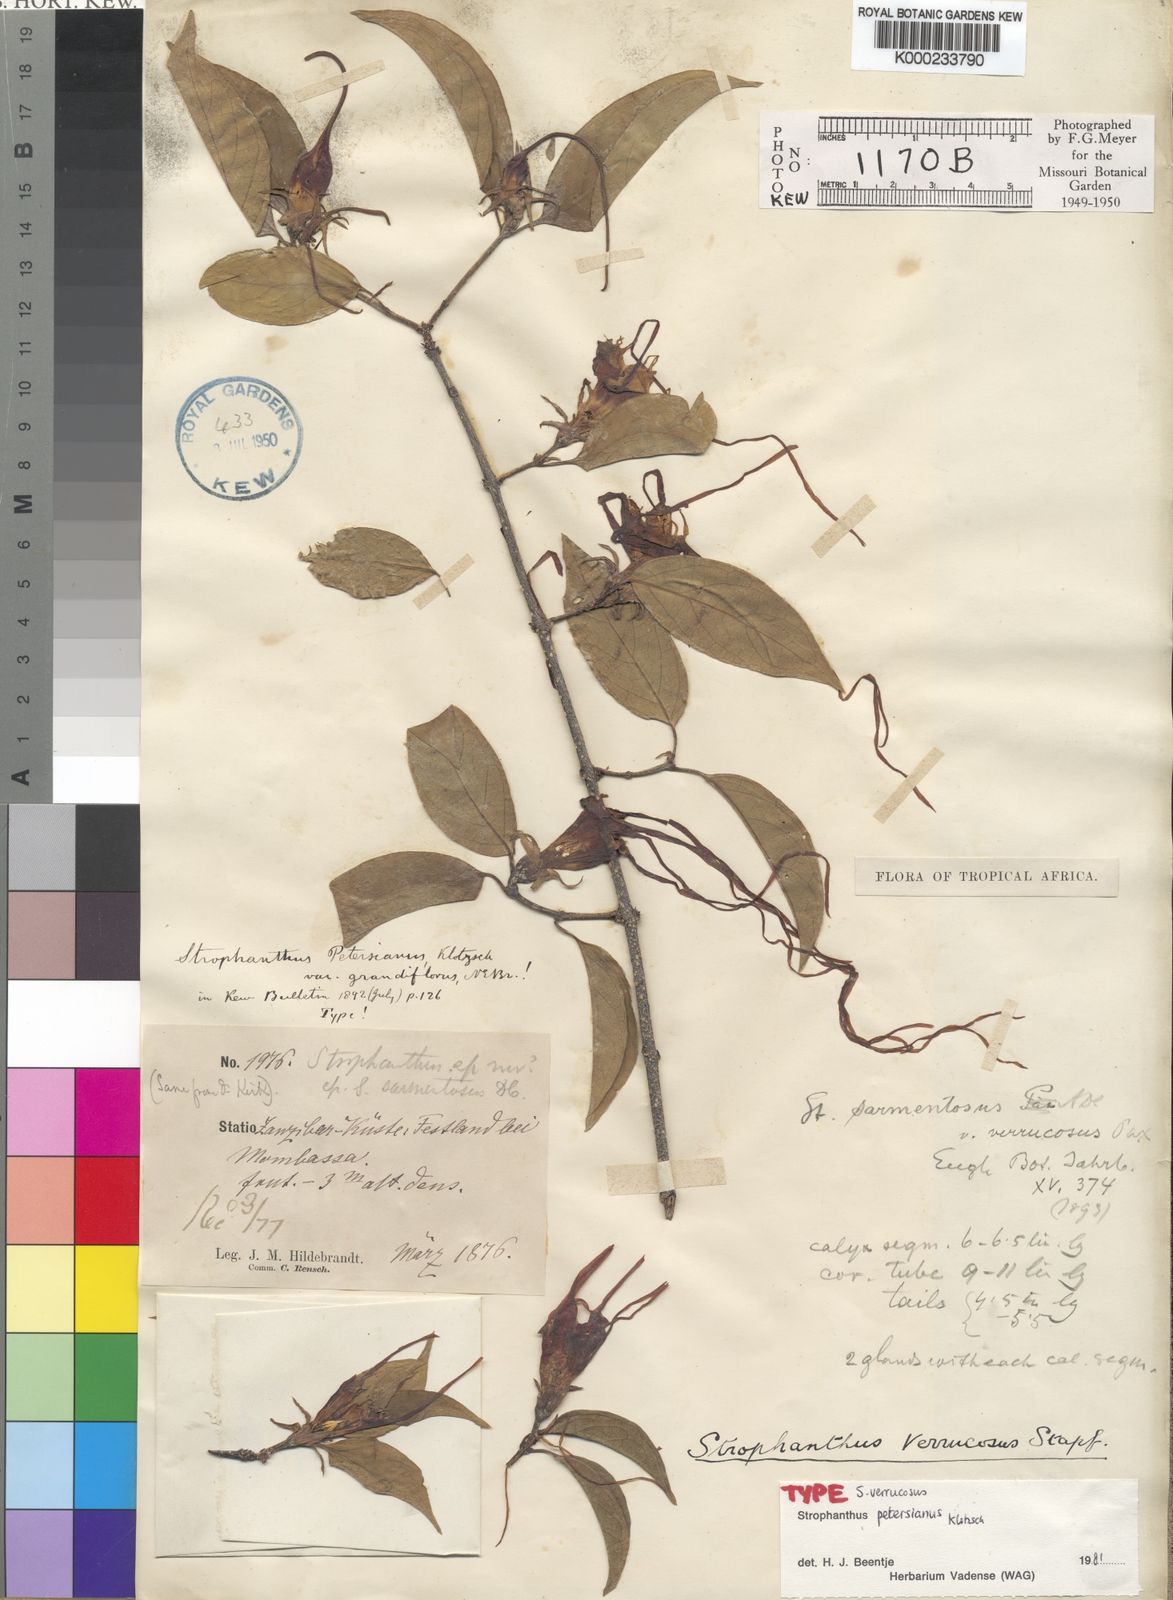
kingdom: Plantae
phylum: Tracheophyta
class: Magnoliopsida
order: Gentianales
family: Apocynaceae
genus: Strophanthus
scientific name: Strophanthus petersianus
